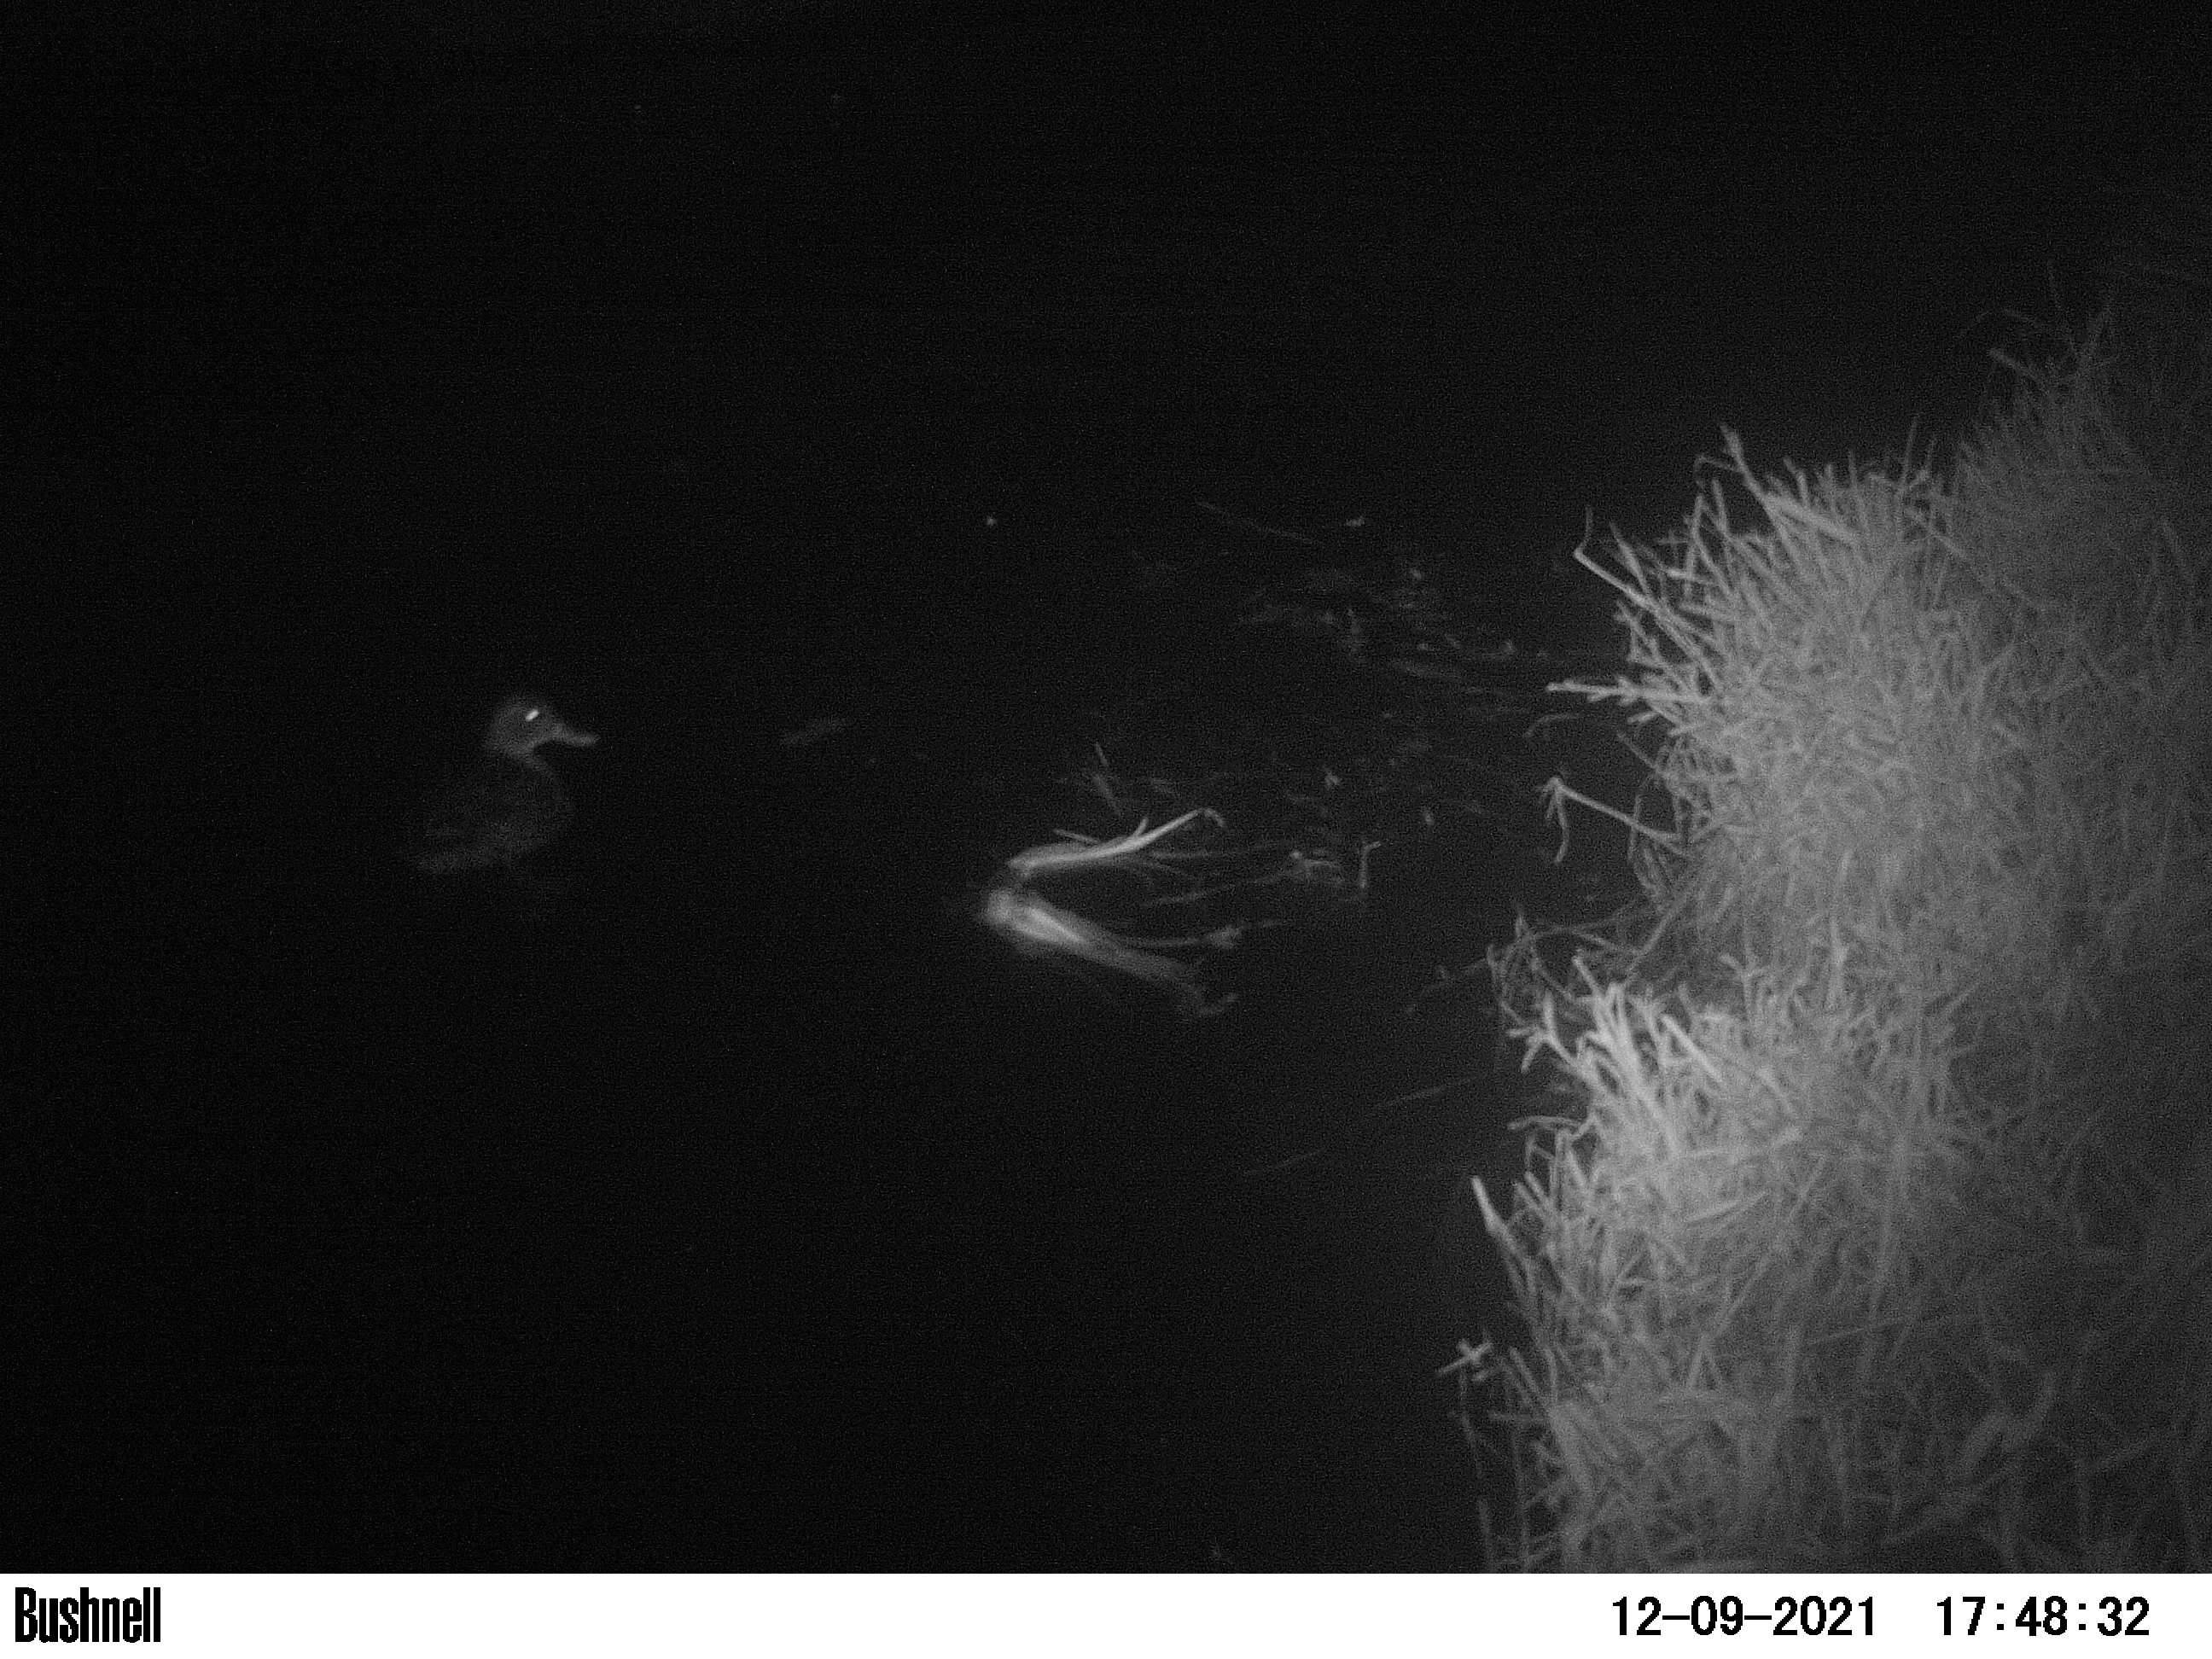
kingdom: Animalia
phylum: Chordata
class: Aves
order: Anseriformes
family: Anatidae
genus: Anas
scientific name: Anas
